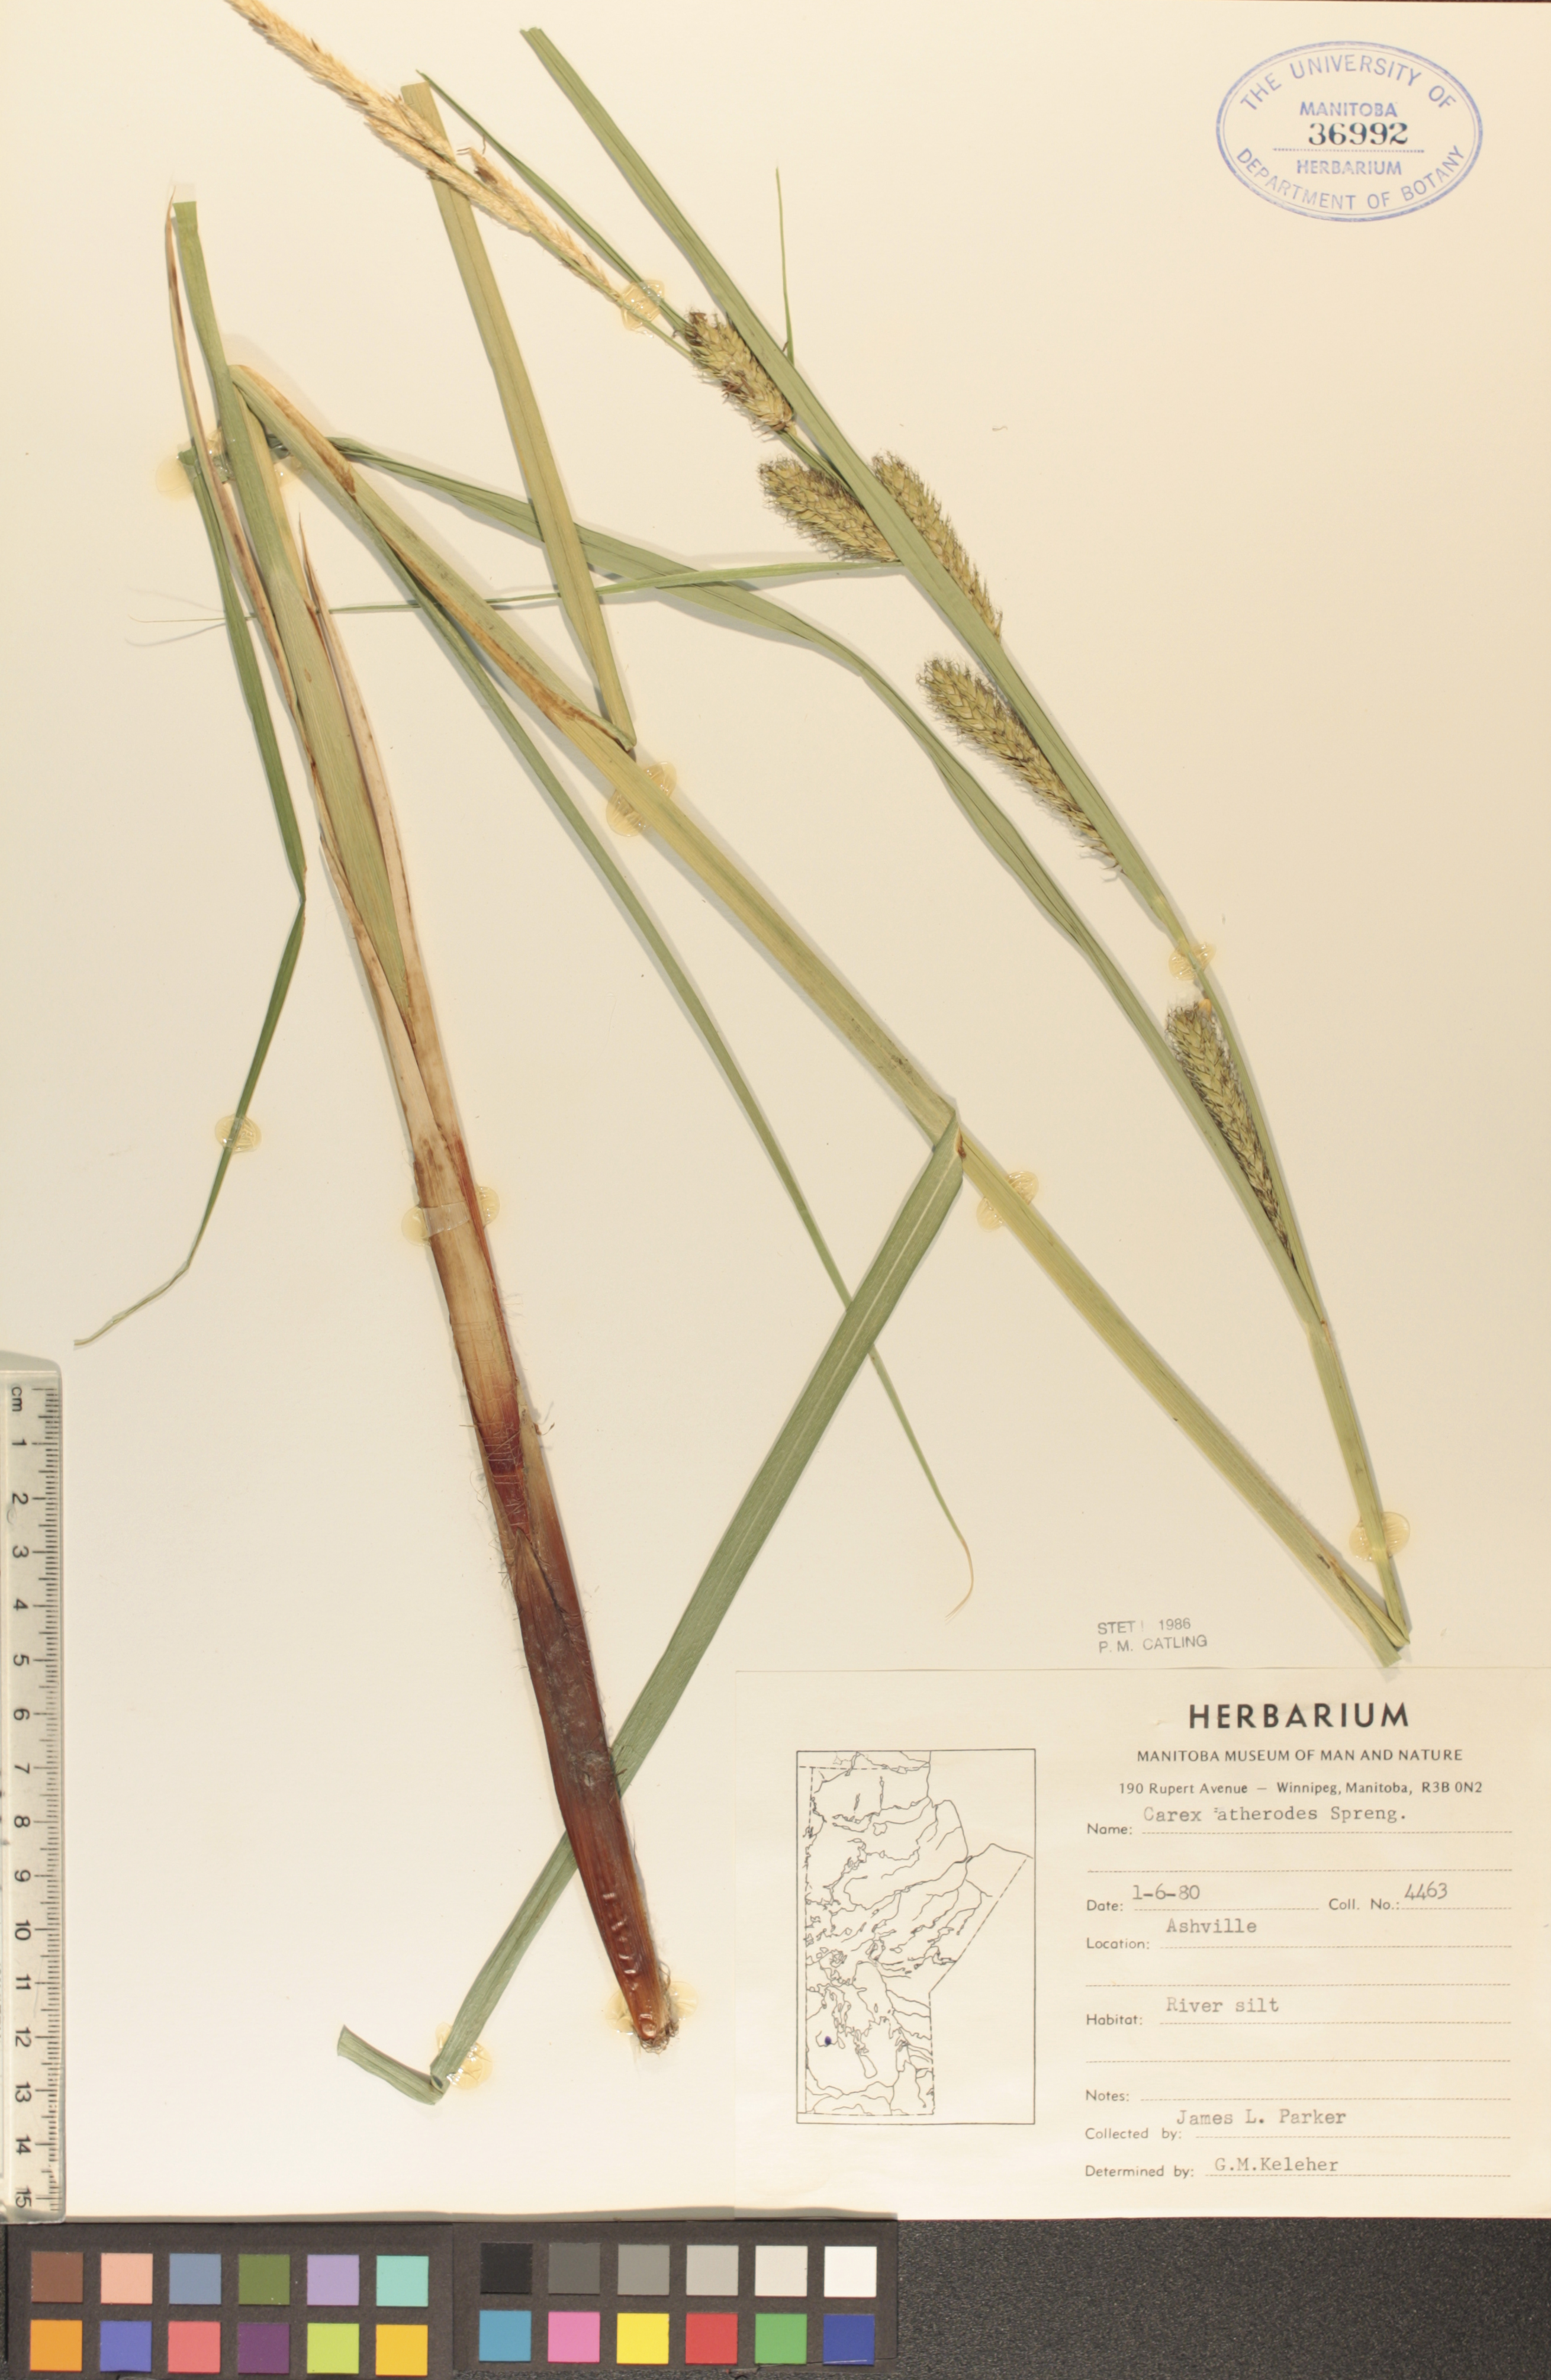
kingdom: Plantae
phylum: Tracheophyta
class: Liliopsida
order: Poales
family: Cyperaceae
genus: Carex
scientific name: Carex atherodes
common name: Wheat sedge
